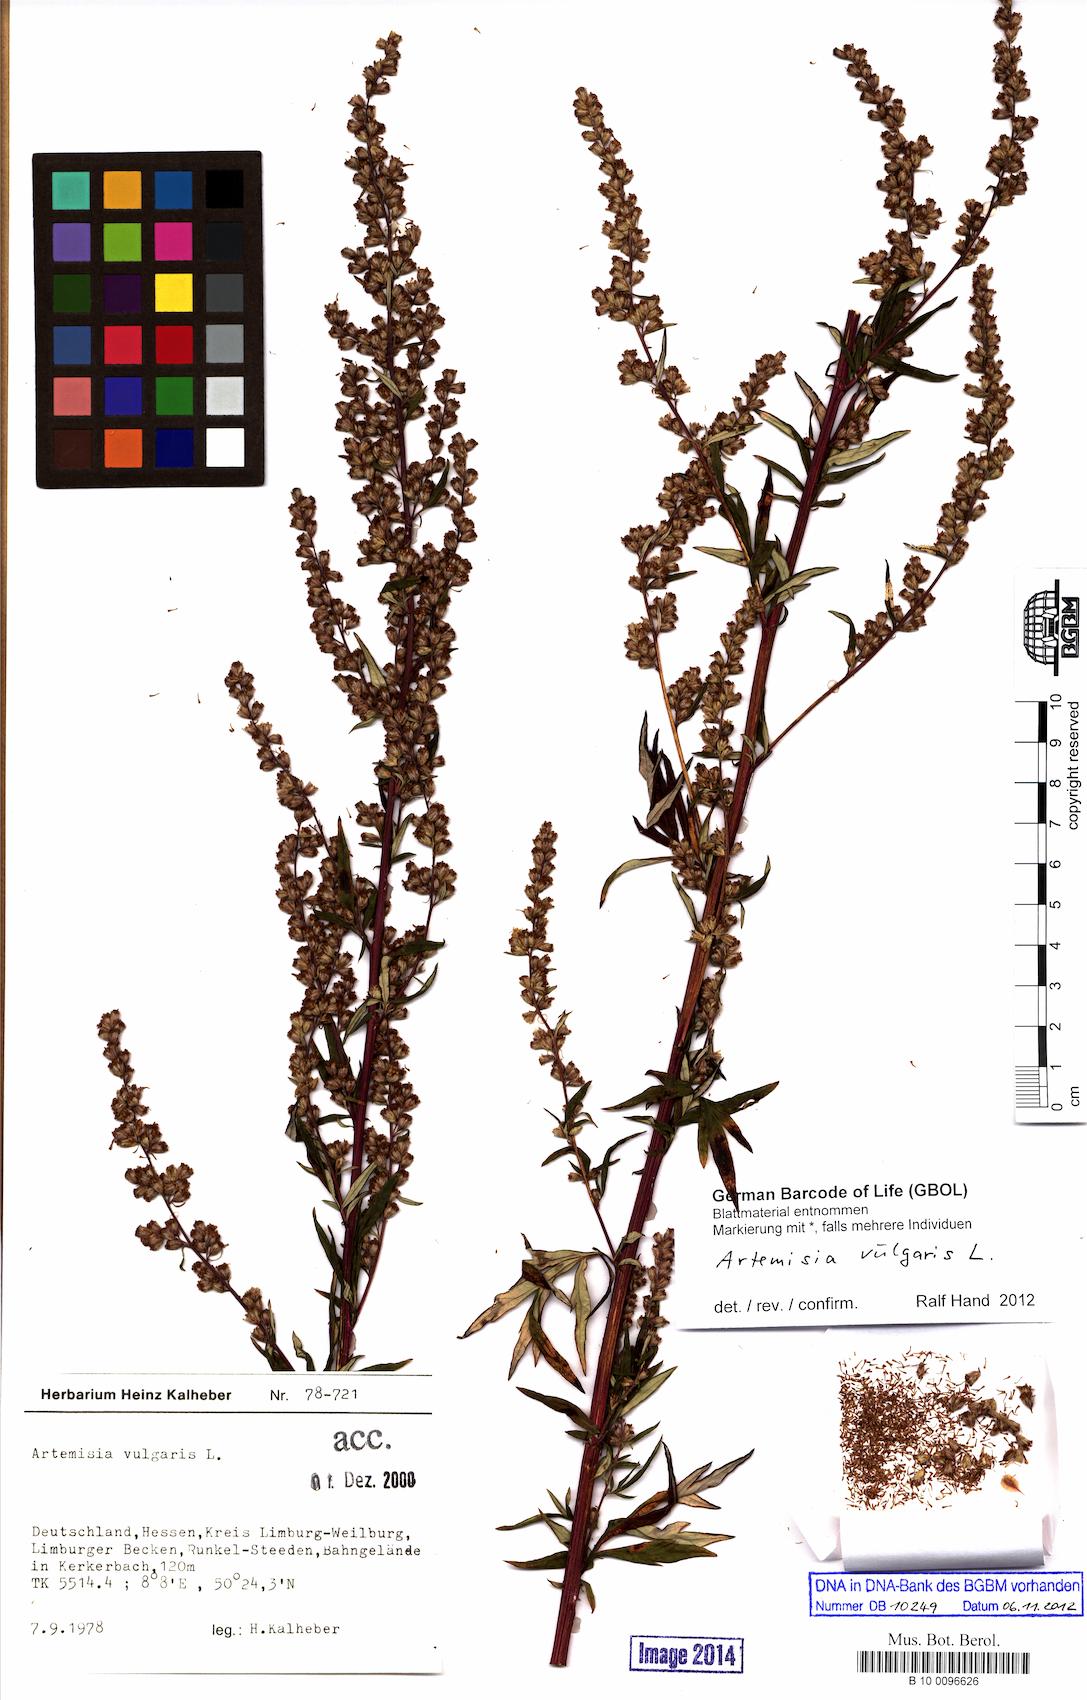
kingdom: Plantae
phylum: Tracheophyta
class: Magnoliopsida
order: Asterales
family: Asteraceae
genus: Artemisia
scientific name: Artemisia vulgaris
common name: Mugwort
